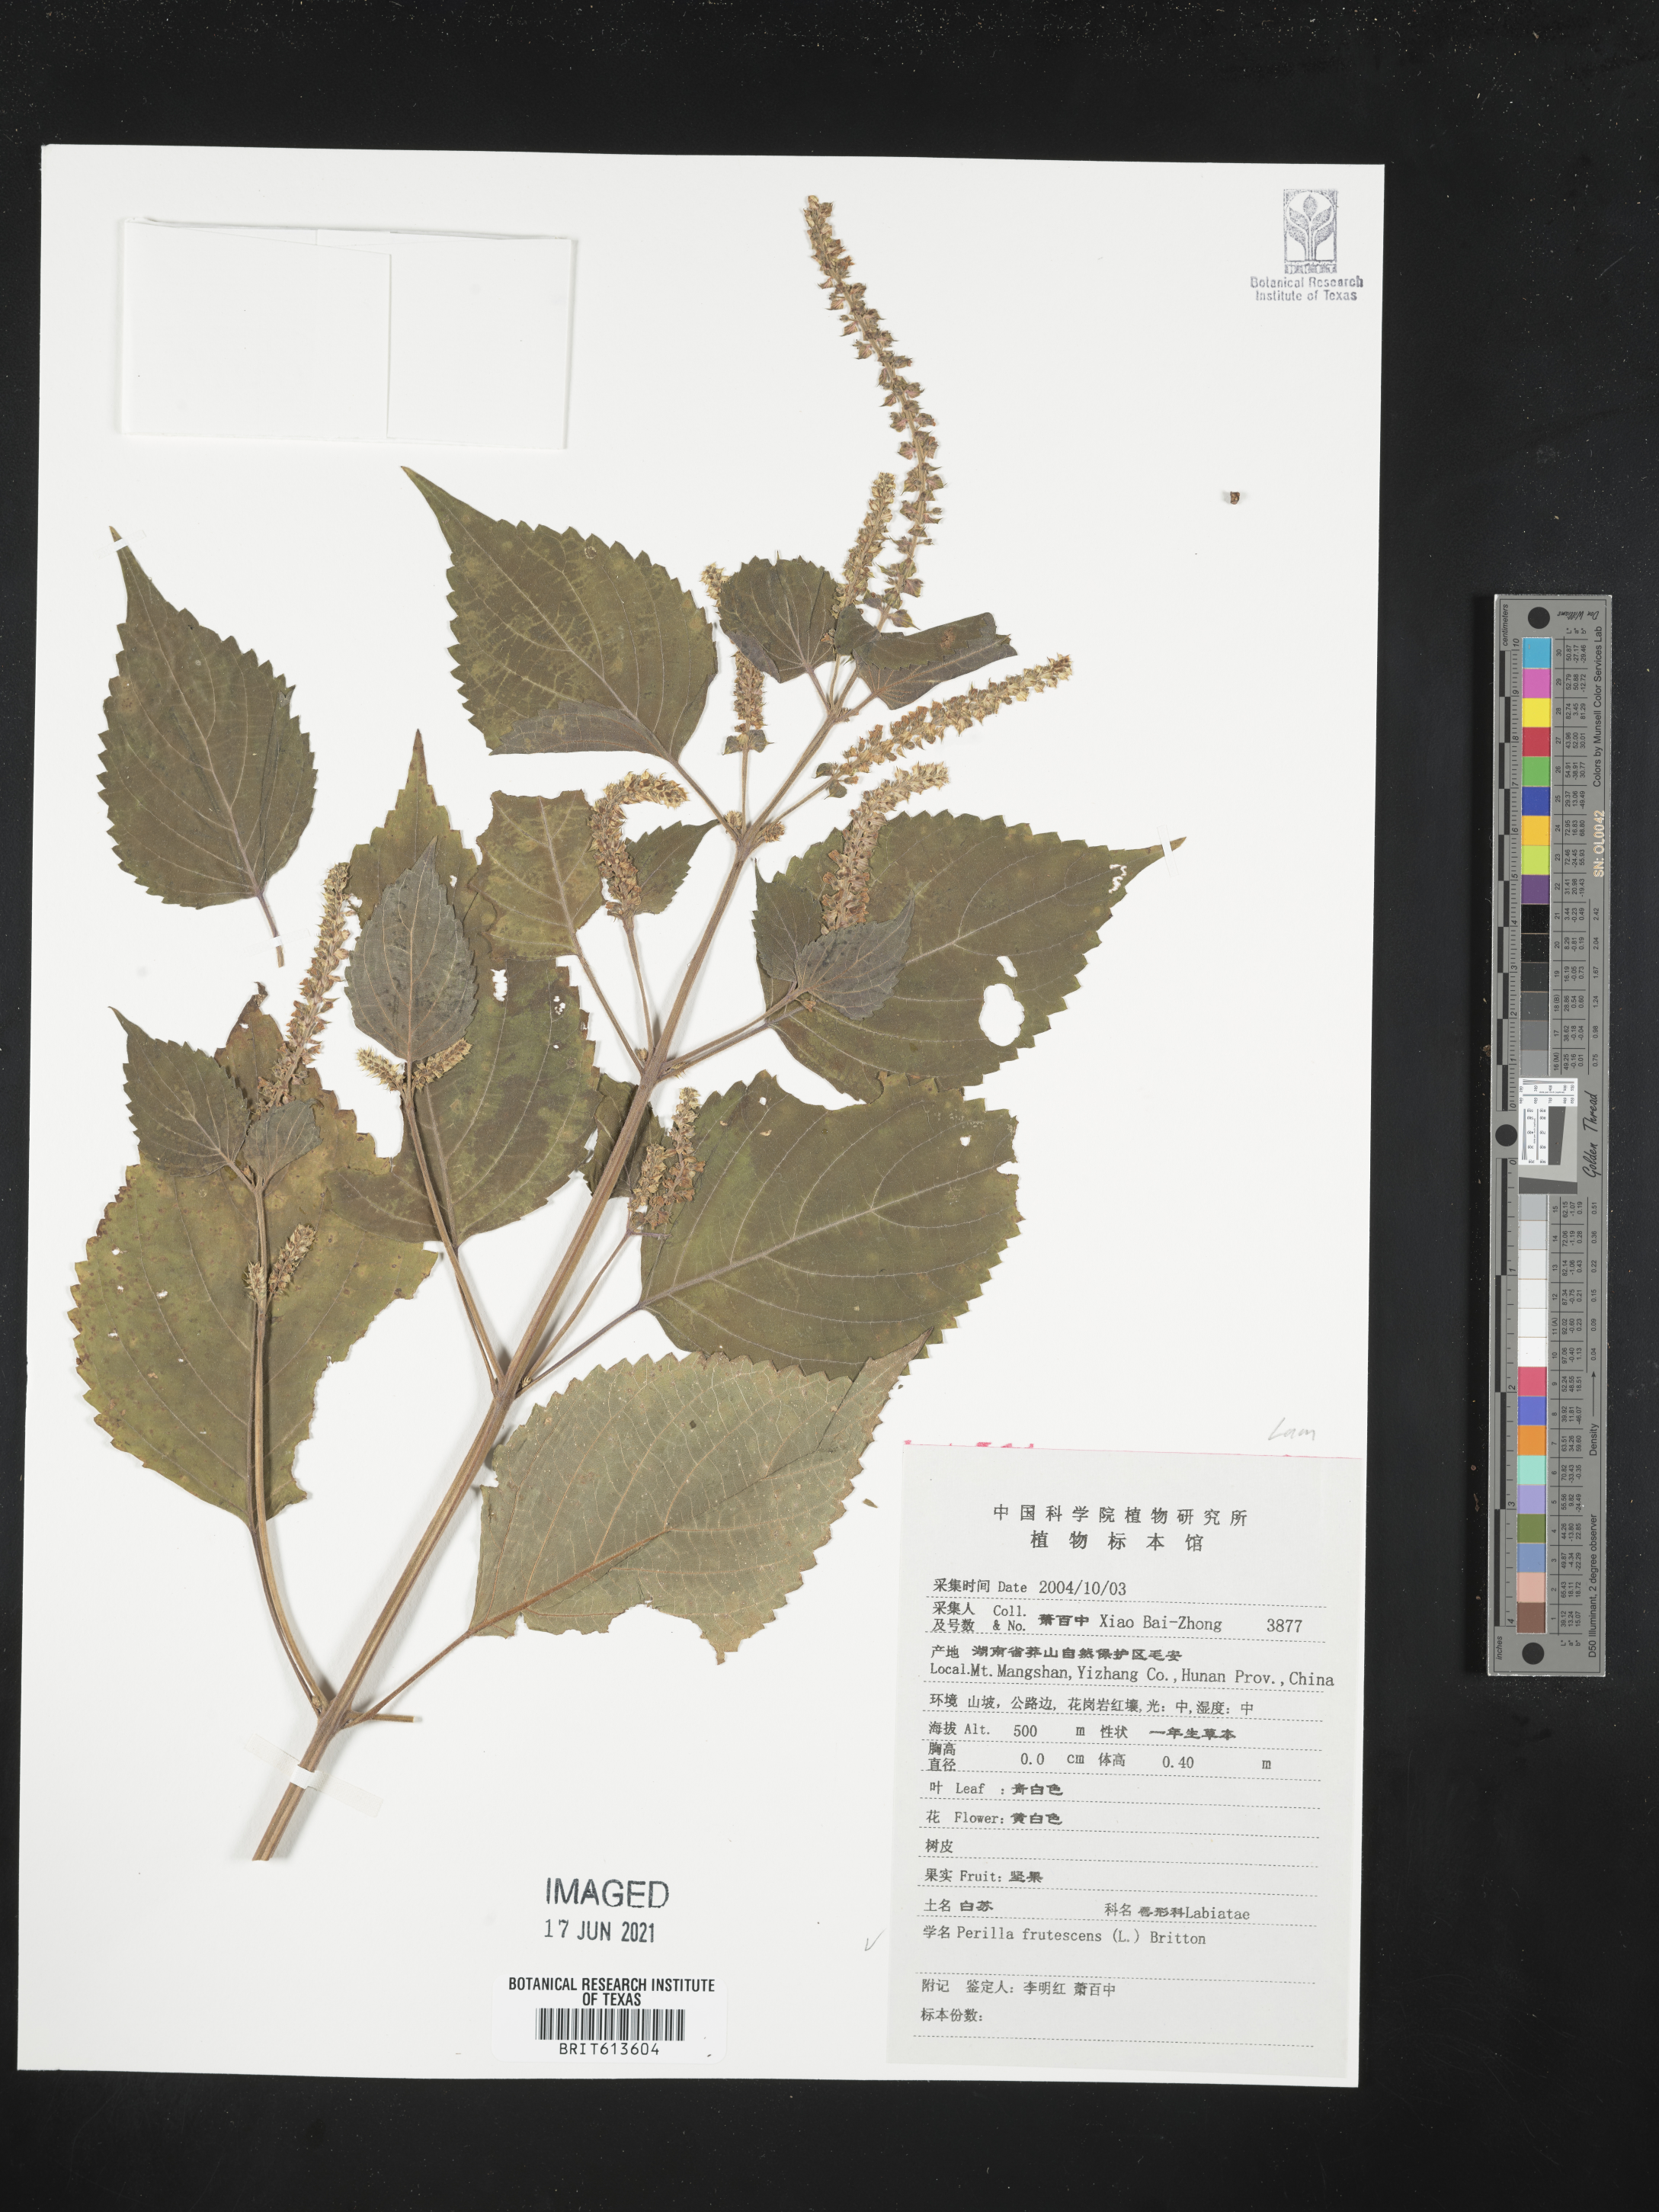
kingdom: Plantae
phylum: Tracheophyta
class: Magnoliopsida
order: Lamiales
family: Lamiaceae
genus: Perilla
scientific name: Perilla frutescens
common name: Perilla
